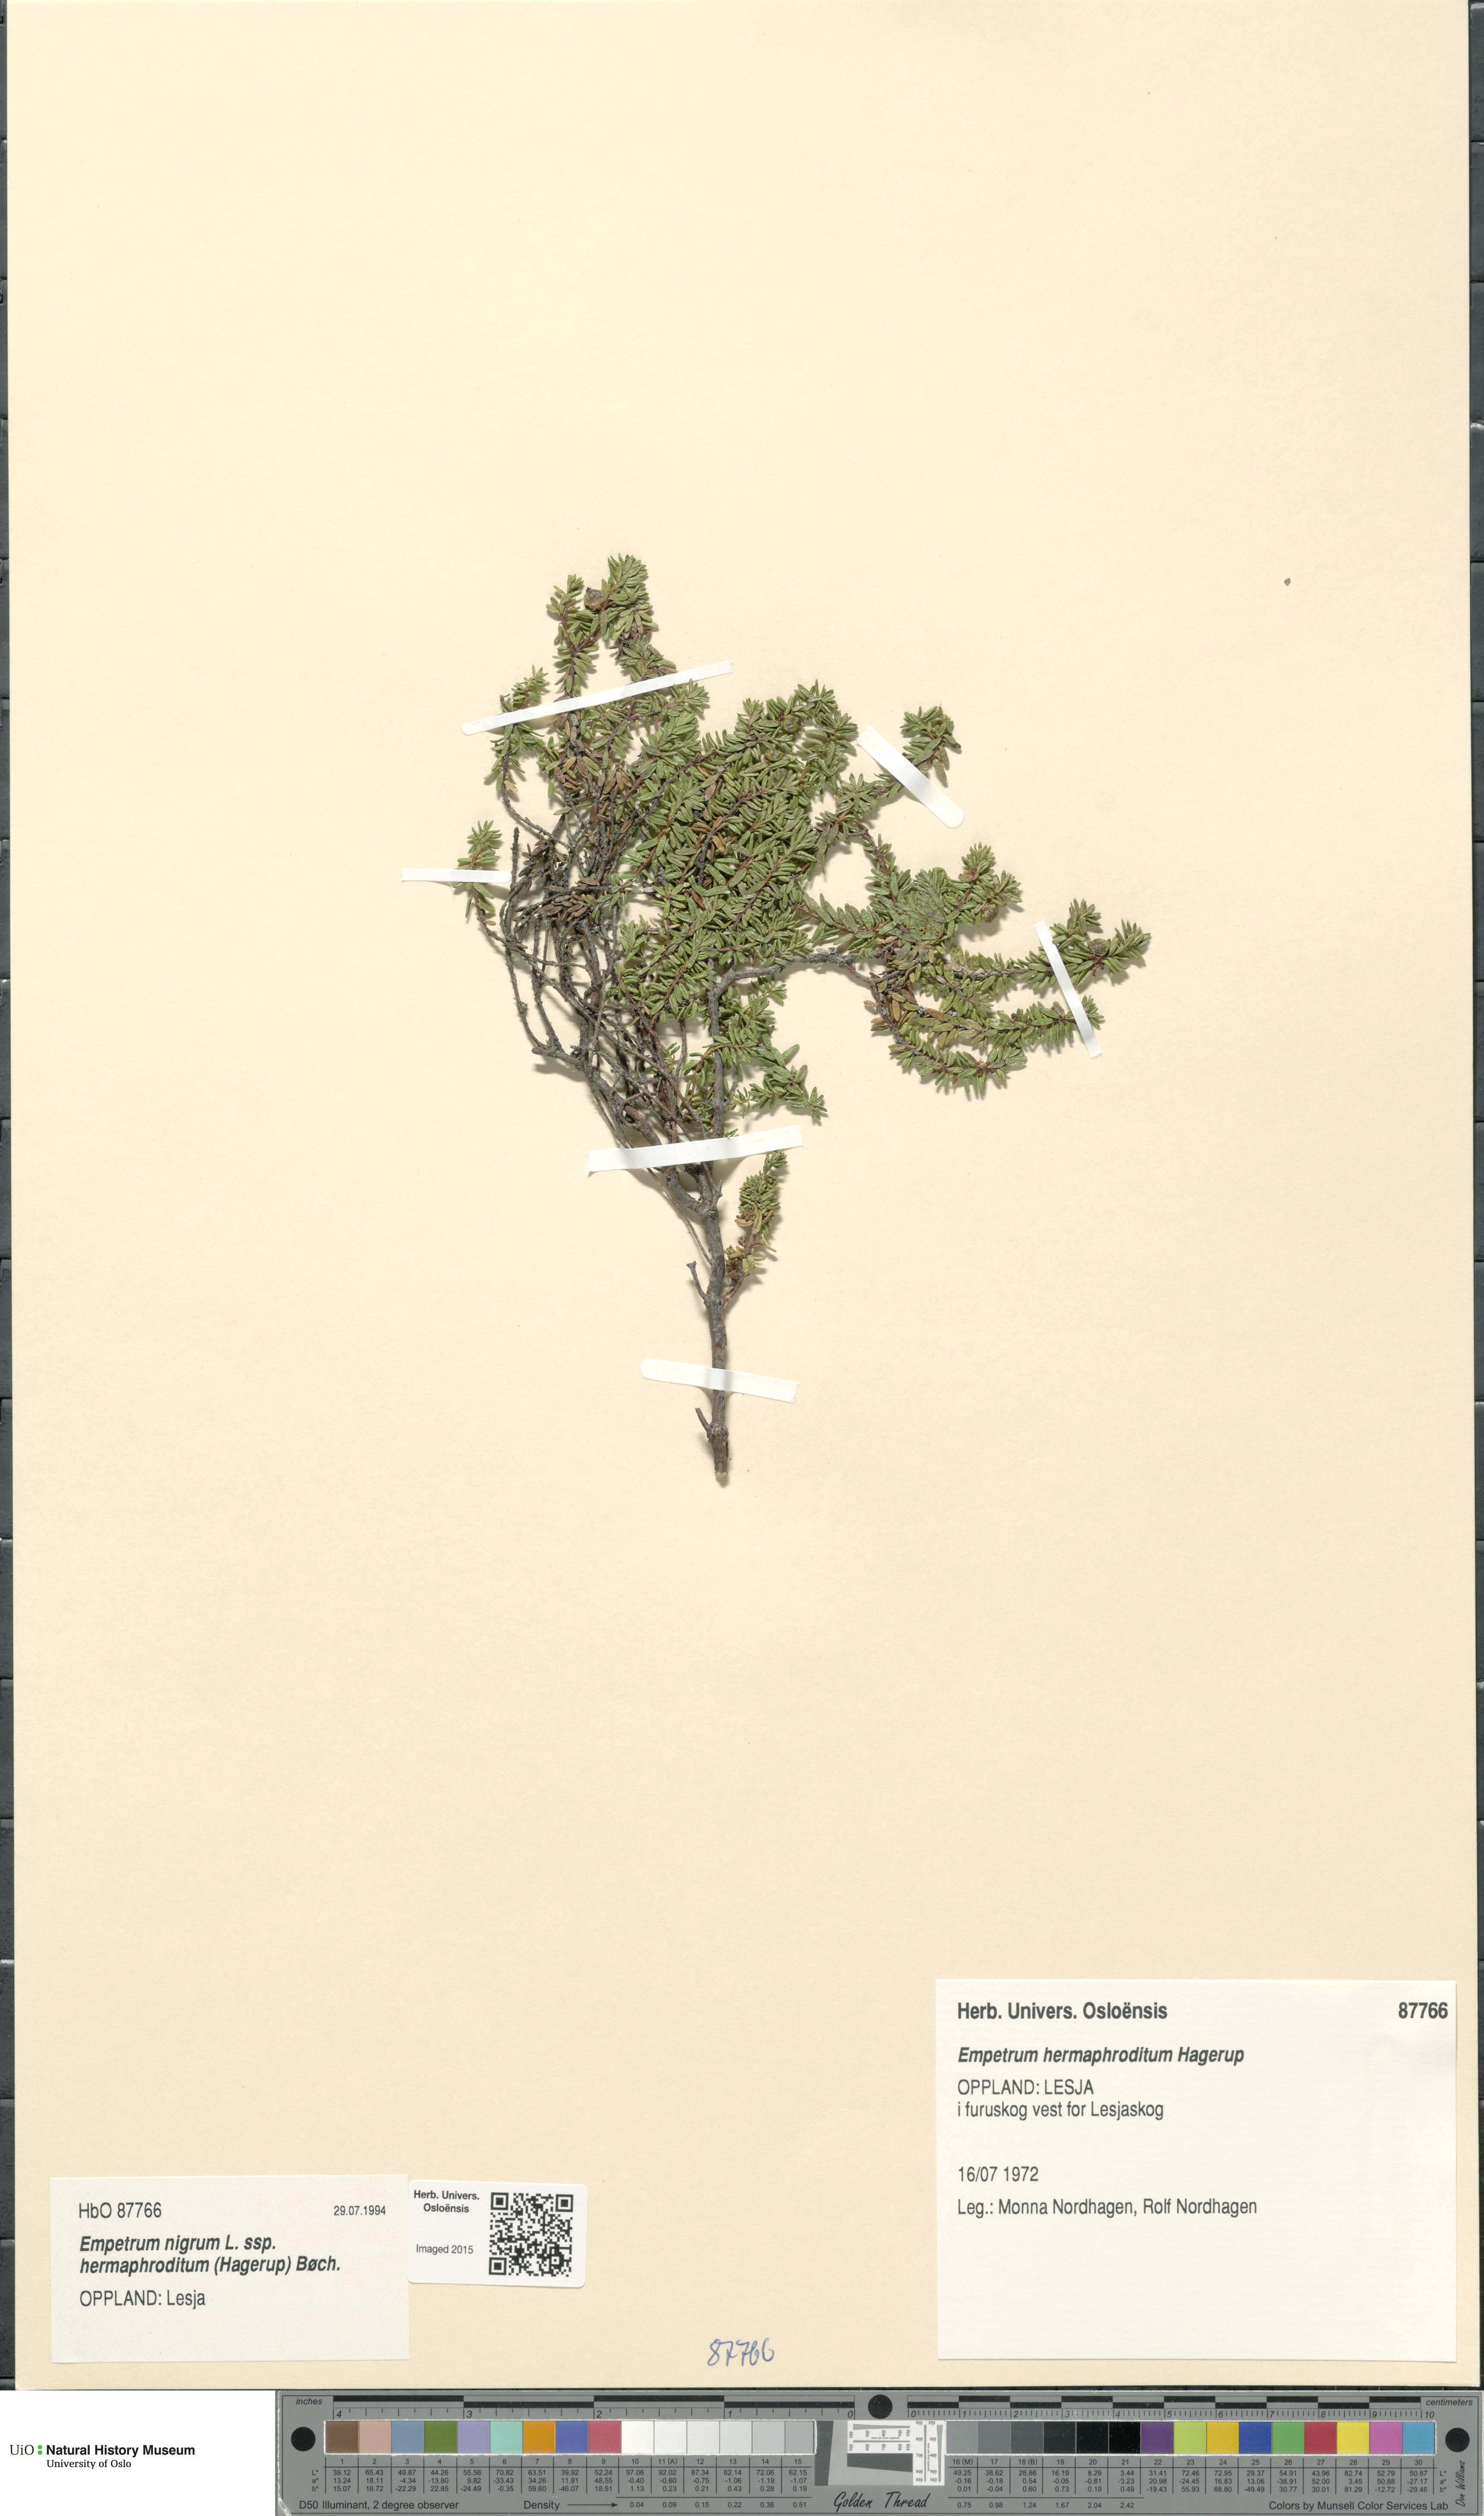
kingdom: Plantae
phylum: Tracheophyta
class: Magnoliopsida
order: Ericales
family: Ericaceae
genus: Empetrum
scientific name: Empetrum hermaphroditum
